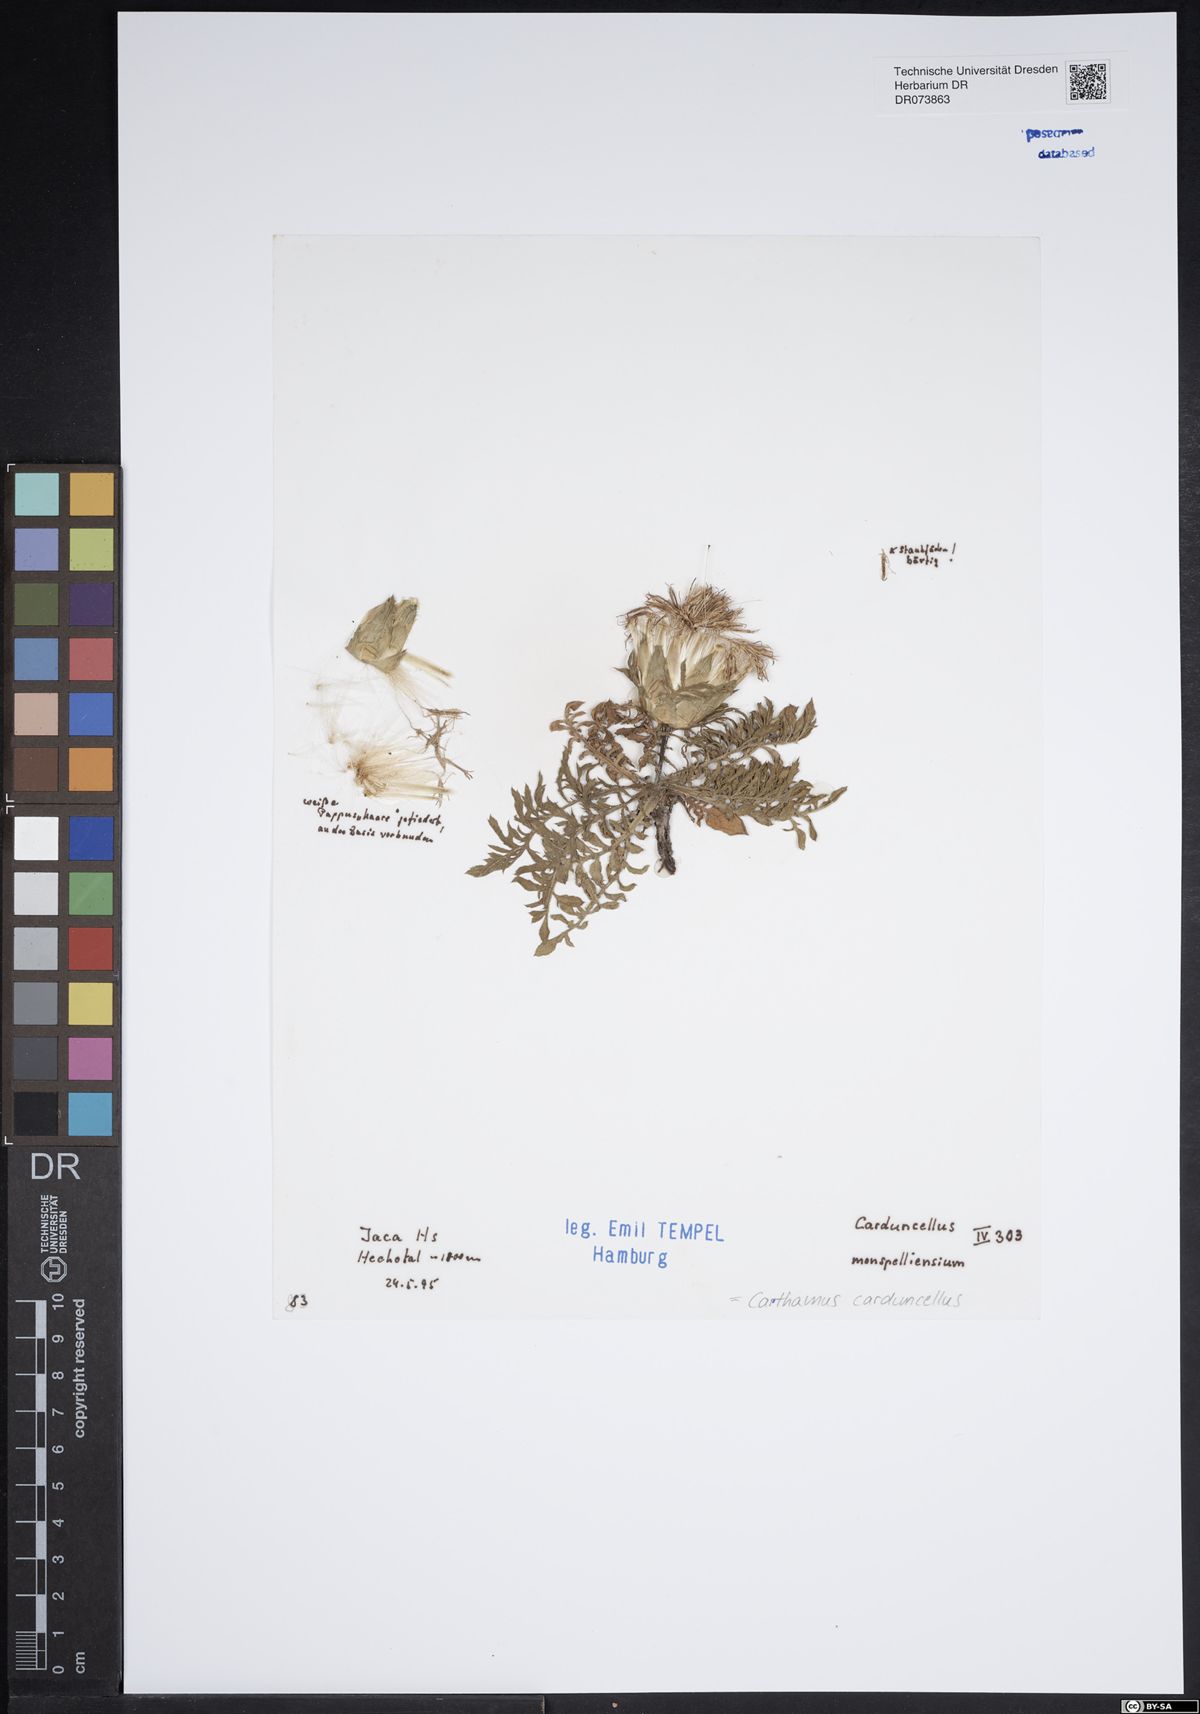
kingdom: Plantae
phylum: Tracheophyta
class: Magnoliopsida
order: Asterales
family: Asteraceae
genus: Carduncellus
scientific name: Carduncellus monspelliensium
